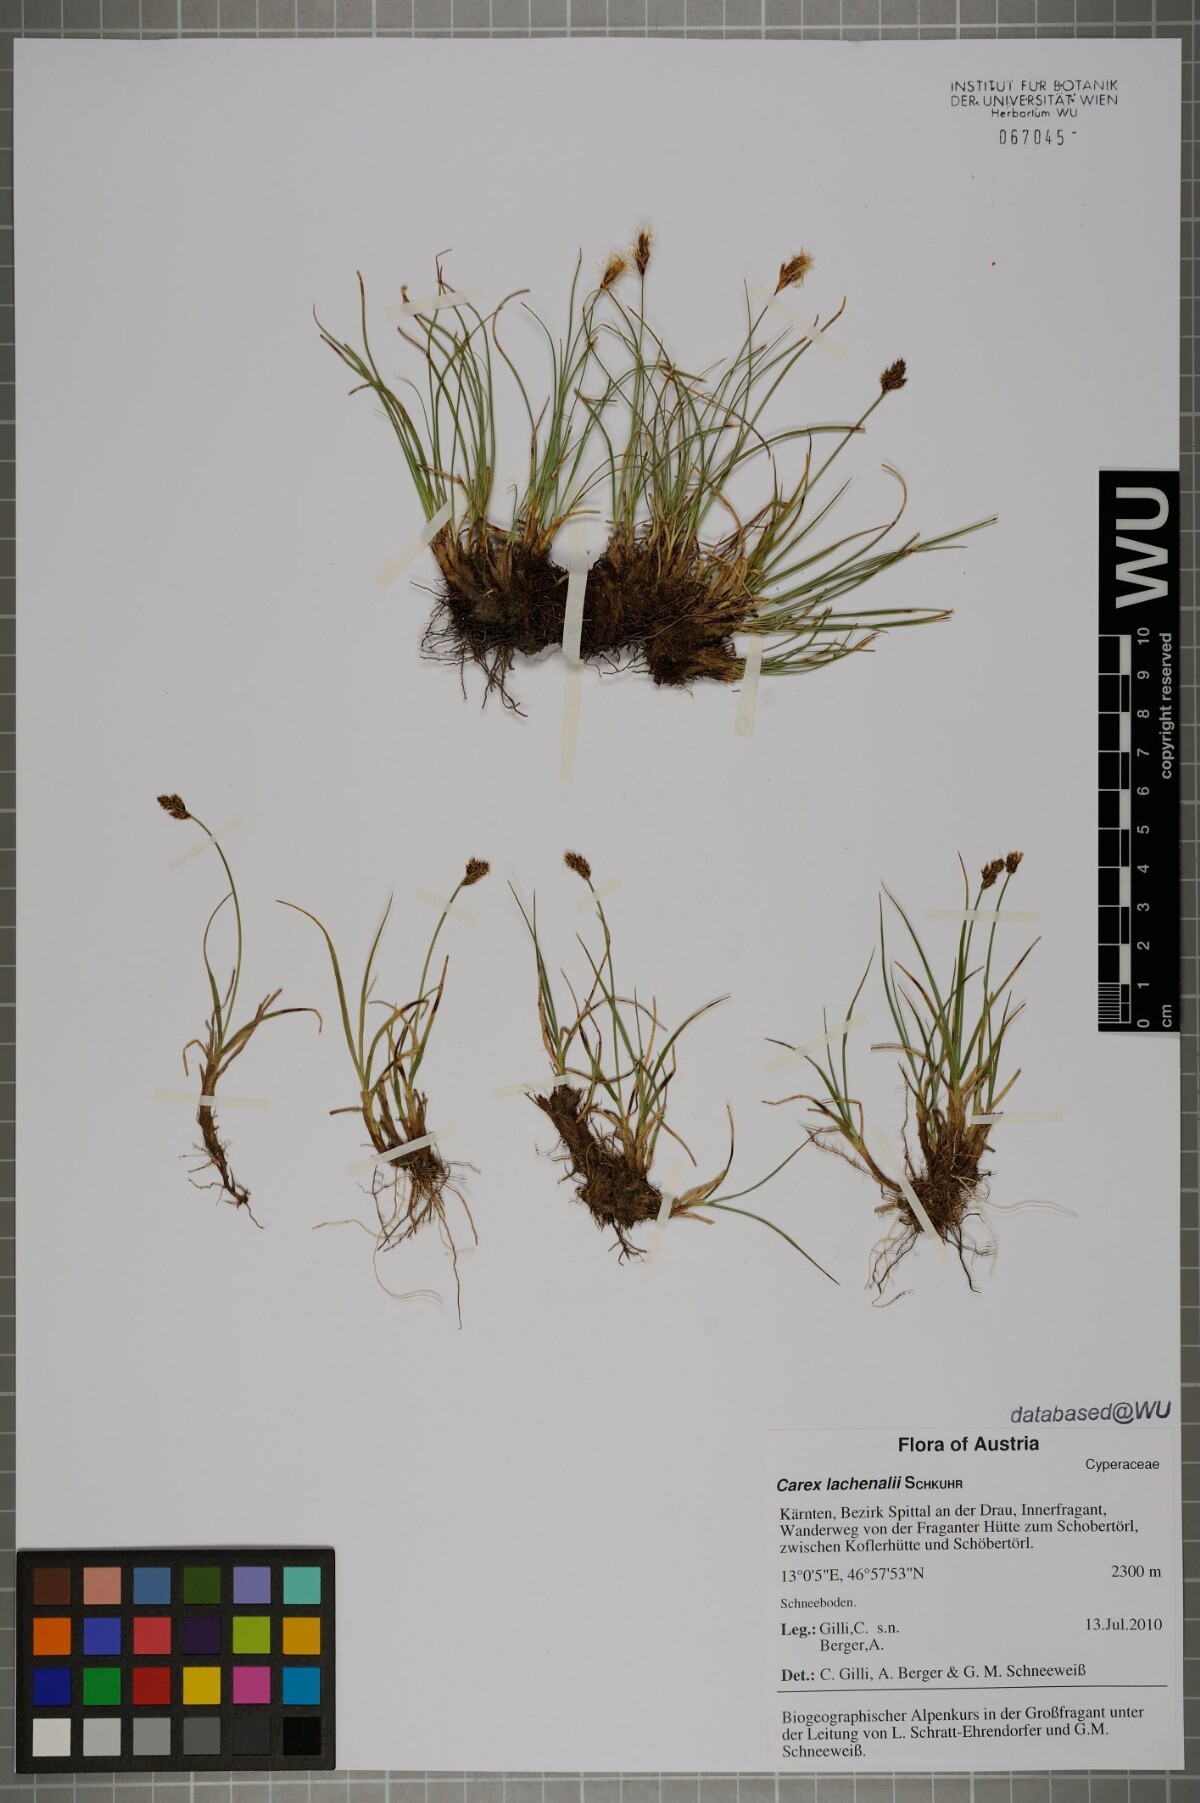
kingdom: Plantae
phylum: Tracheophyta
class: Liliopsida
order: Poales
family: Cyperaceae
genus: Carex
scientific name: Carex lachenalii
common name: Hare's-foot sedge
